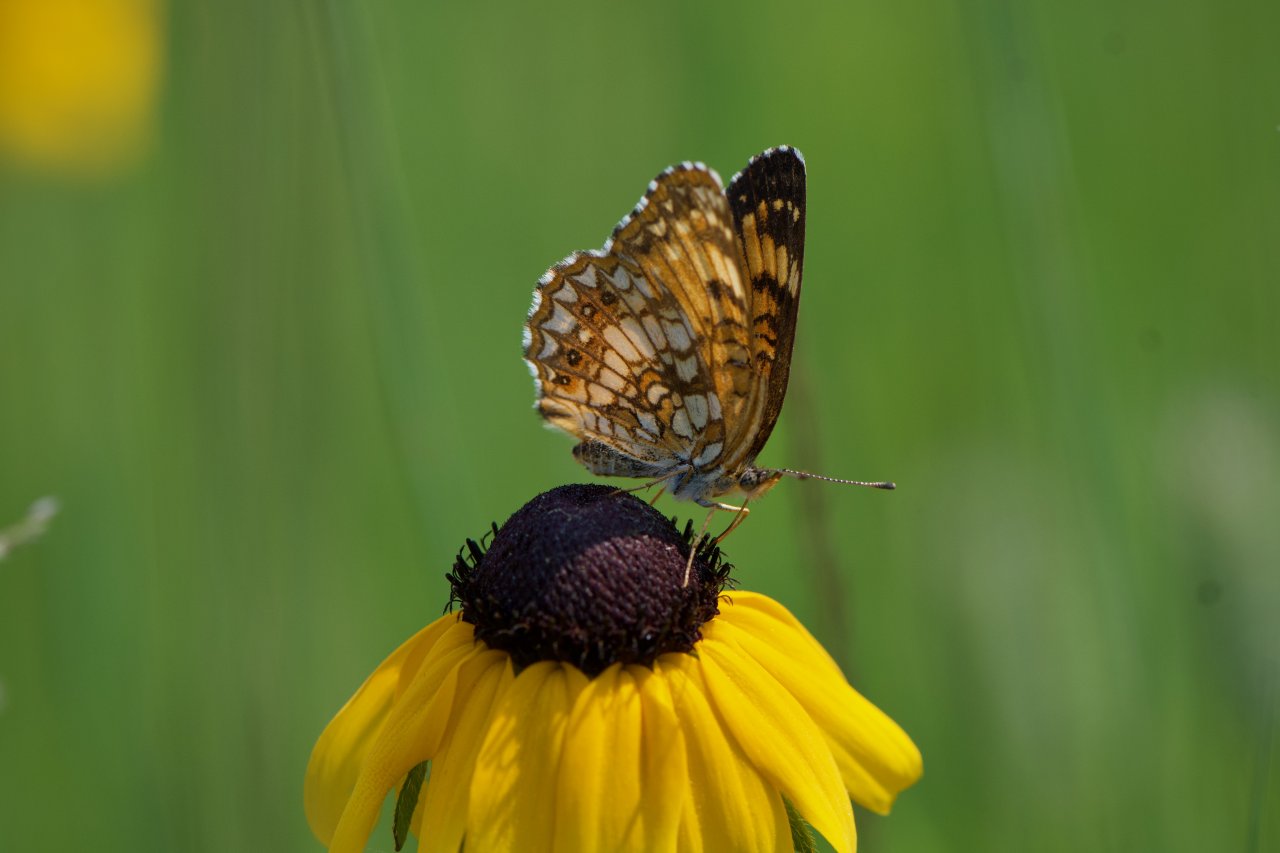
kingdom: Animalia
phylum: Arthropoda
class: Insecta
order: Lepidoptera
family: Nymphalidae
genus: Chlosyne
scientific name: Chlosyne harrisii
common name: Harris's Checkerspot
